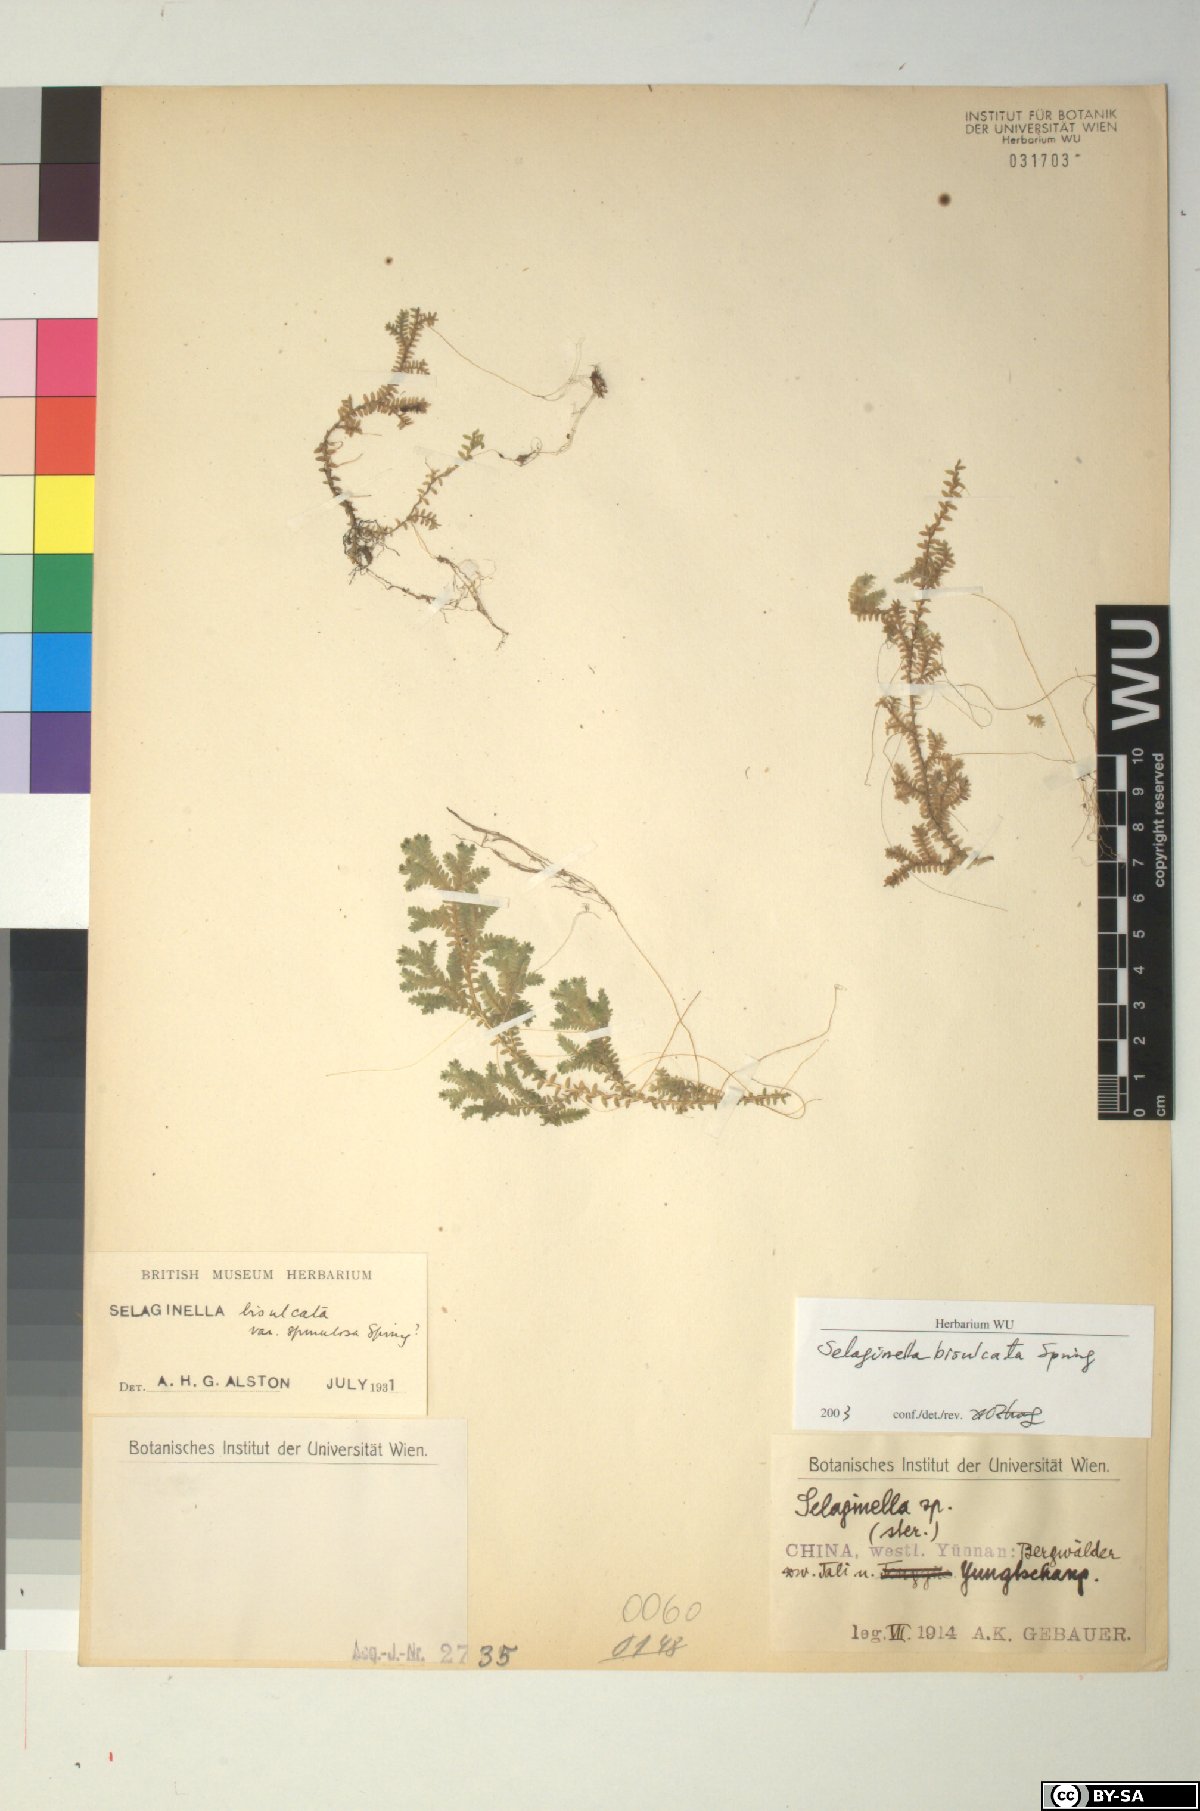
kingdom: Plantae
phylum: Tracheophyta
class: Lycopodiopsida
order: Selaginellales
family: Selaginellaceae
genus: Selaginella
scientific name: Selaginella bisulcata
